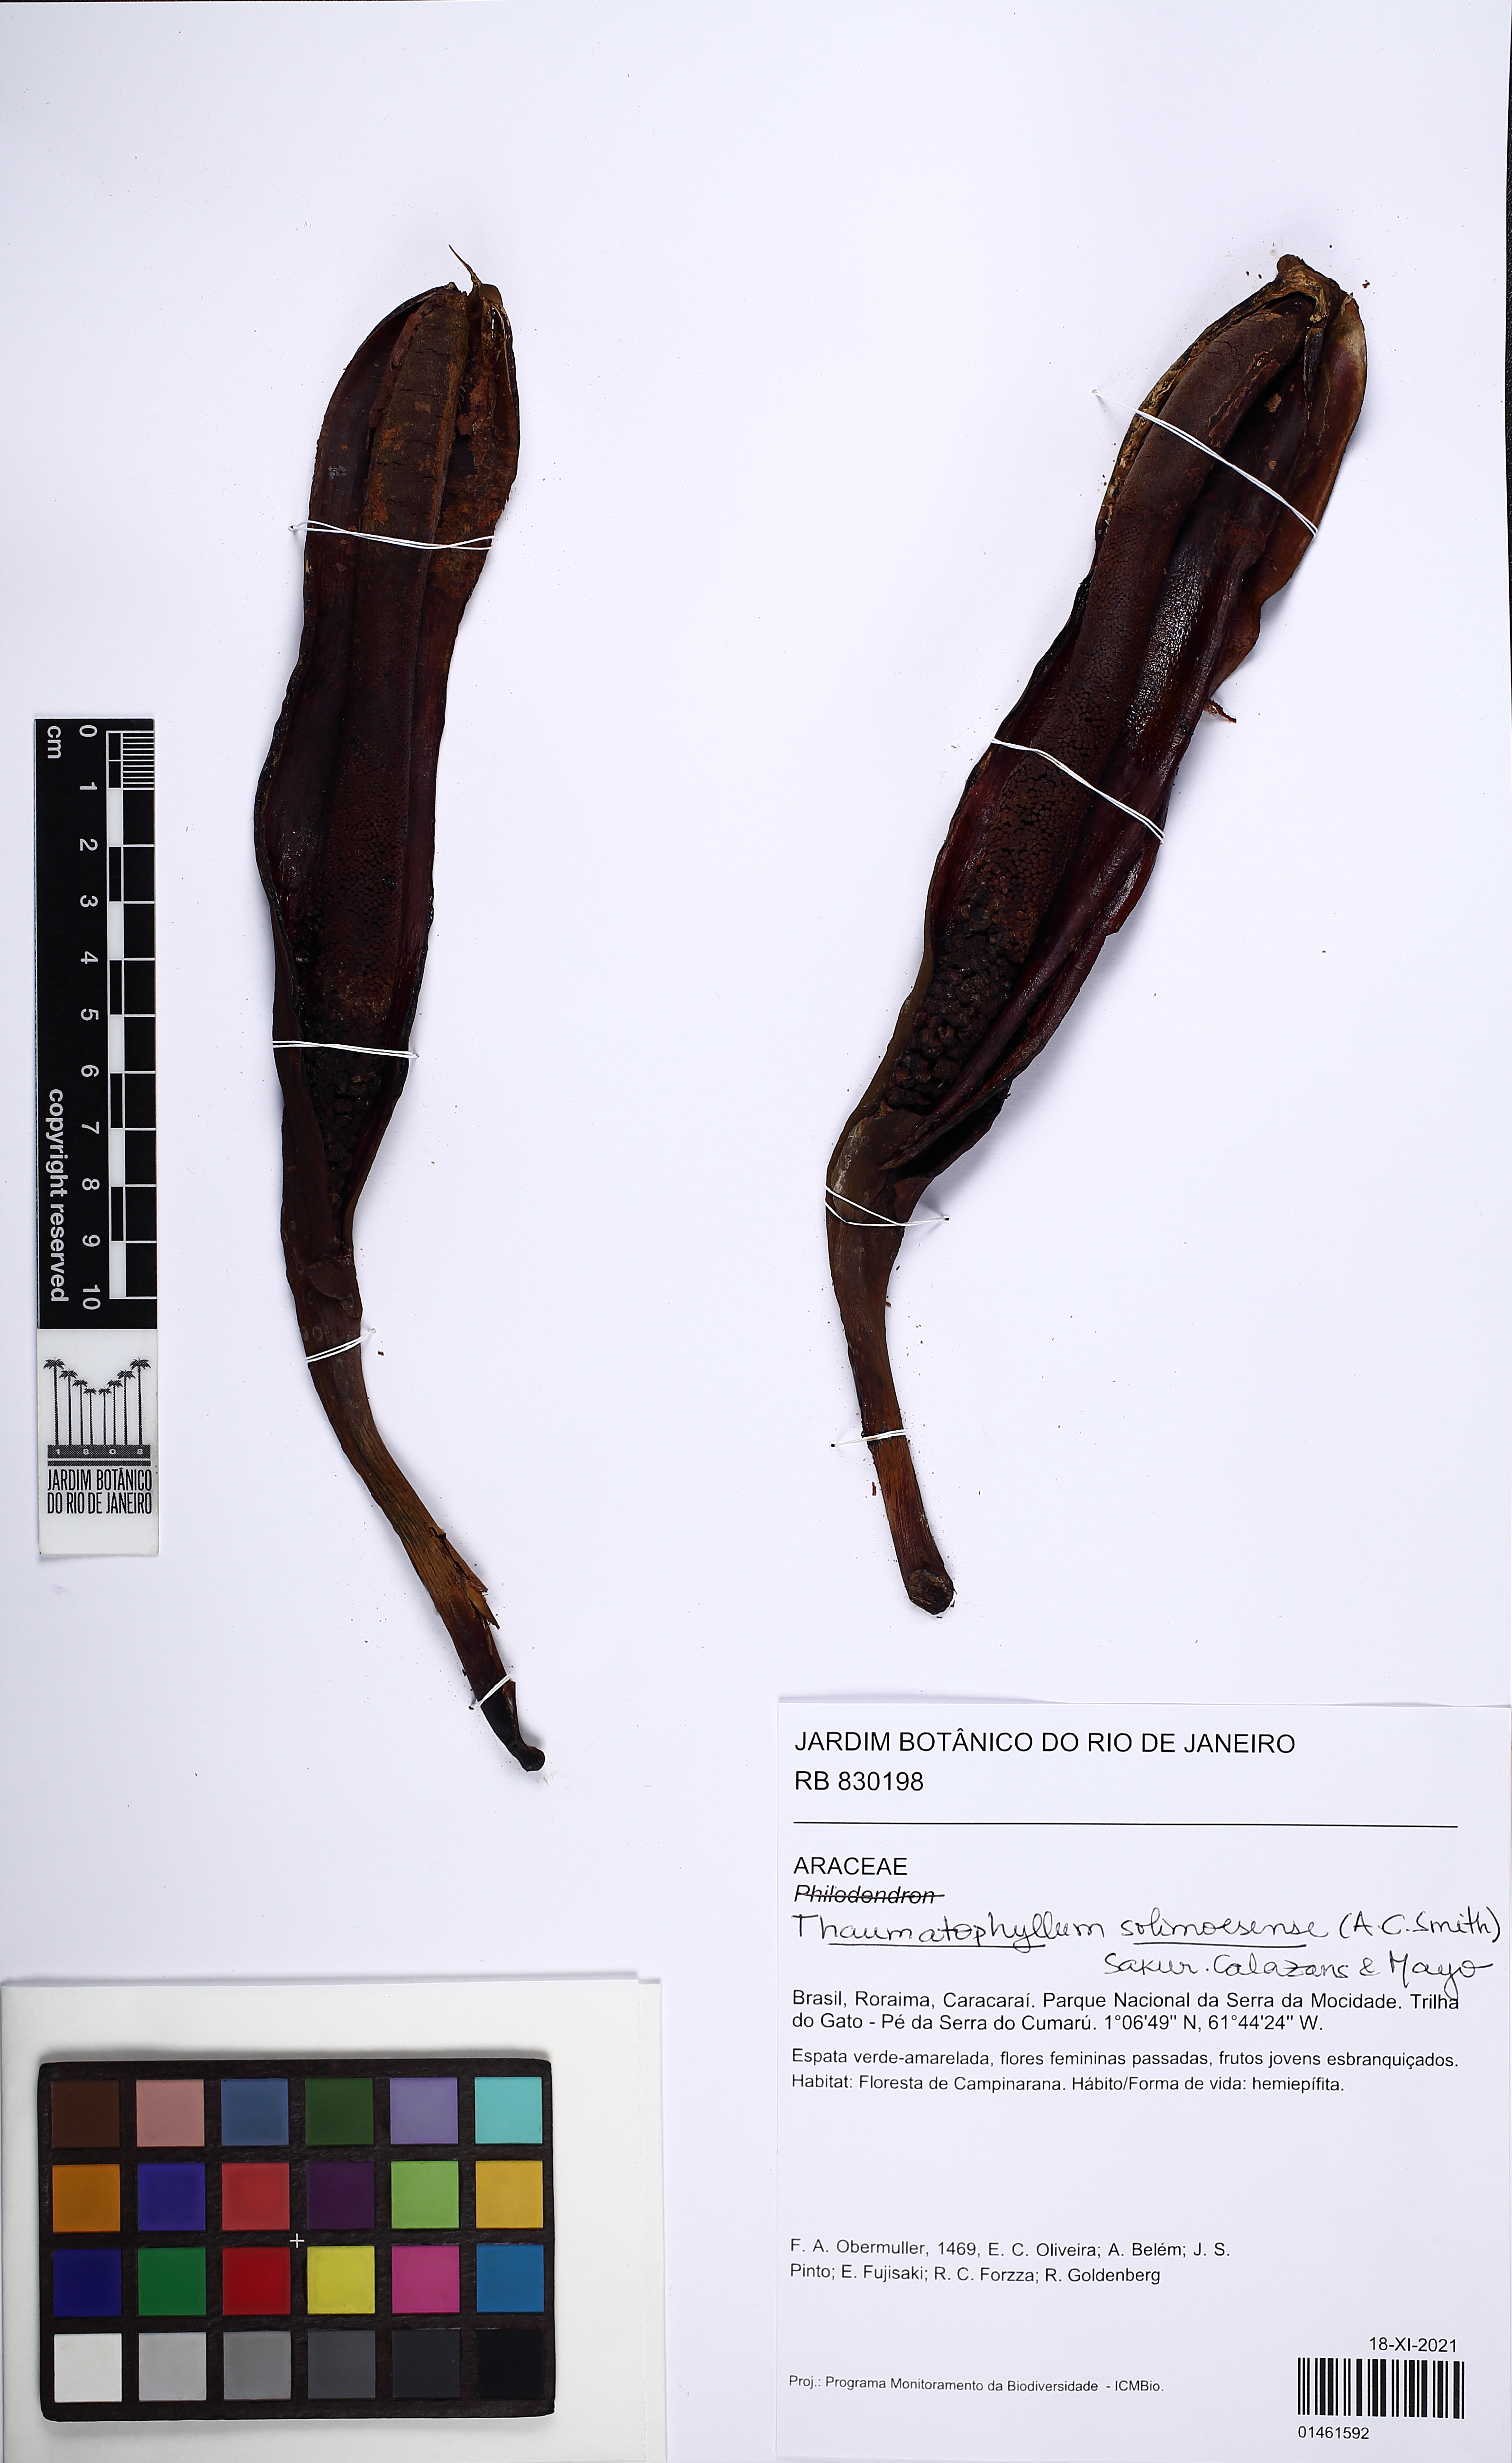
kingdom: Plantae
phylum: Tracheophyta
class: Liliopsida
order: Alismatales
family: Araceae
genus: Thaumatophyllum
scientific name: Thaumatophyllum solimoesense
